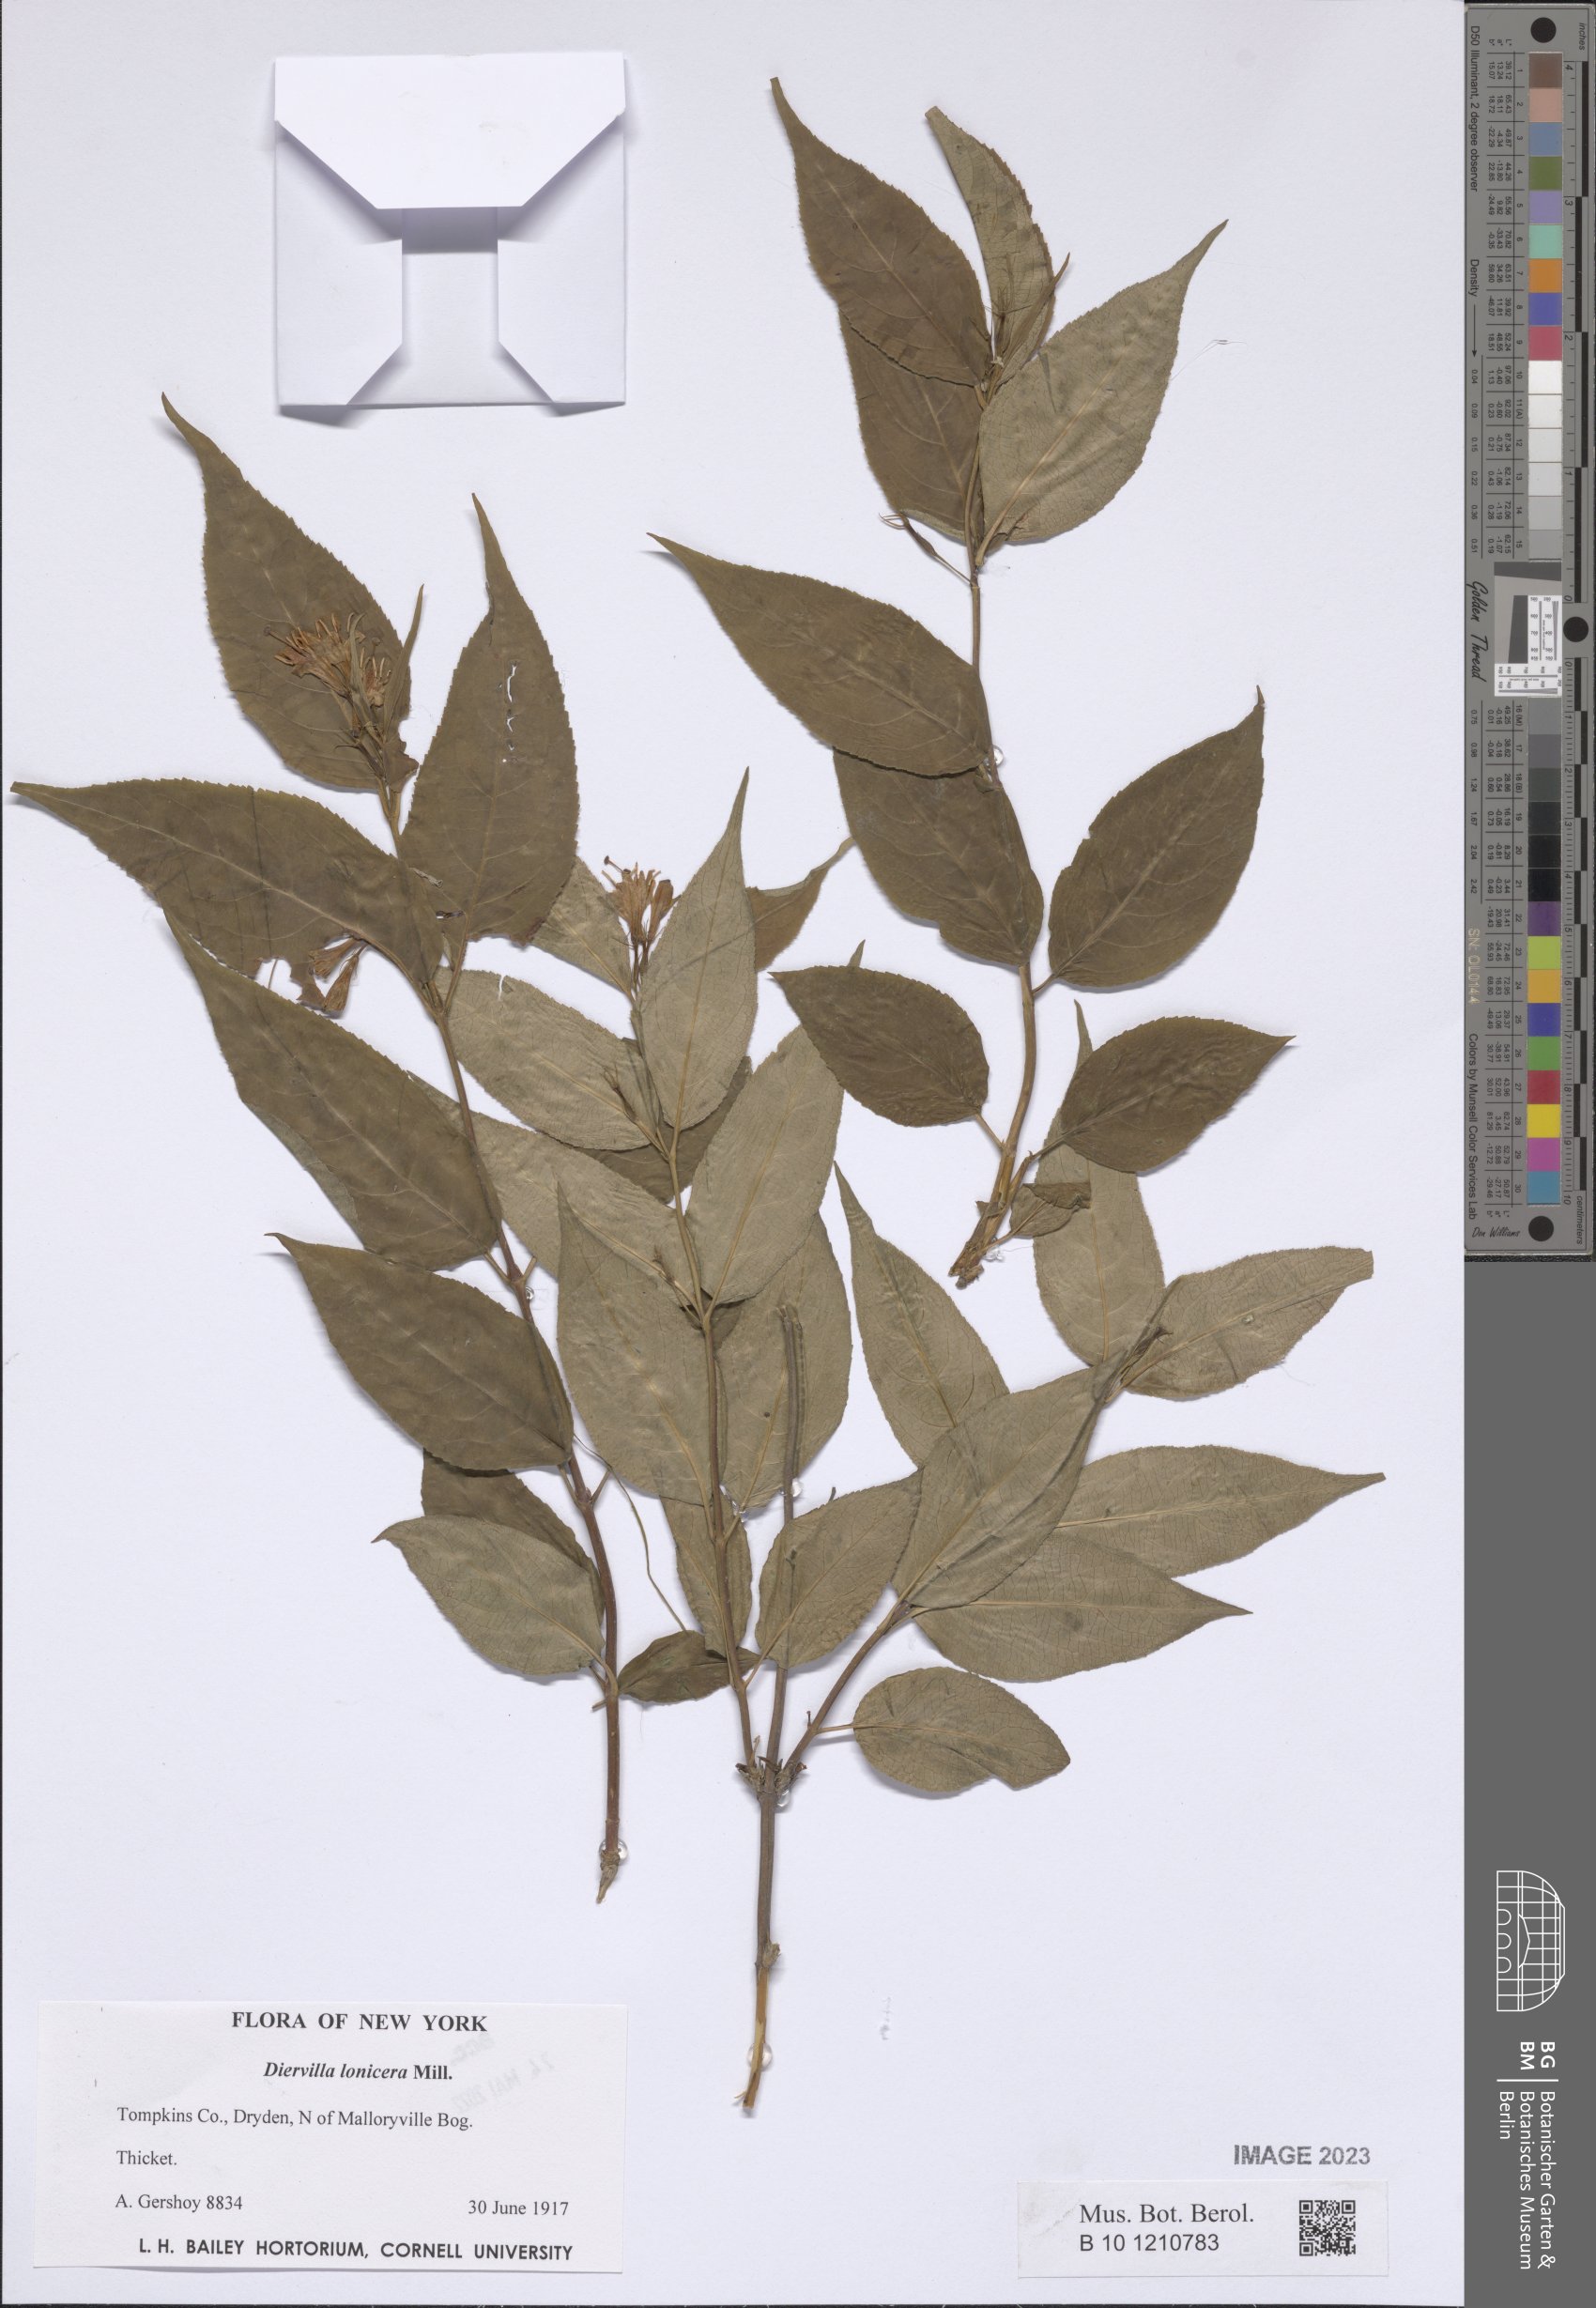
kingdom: Plantae
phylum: Tracheophyta
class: Magnoliopsida
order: Dipsacales
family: Caprifoliaceae
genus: Diervilla
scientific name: Diervilla lonicera
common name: Bush-honeysuckle
